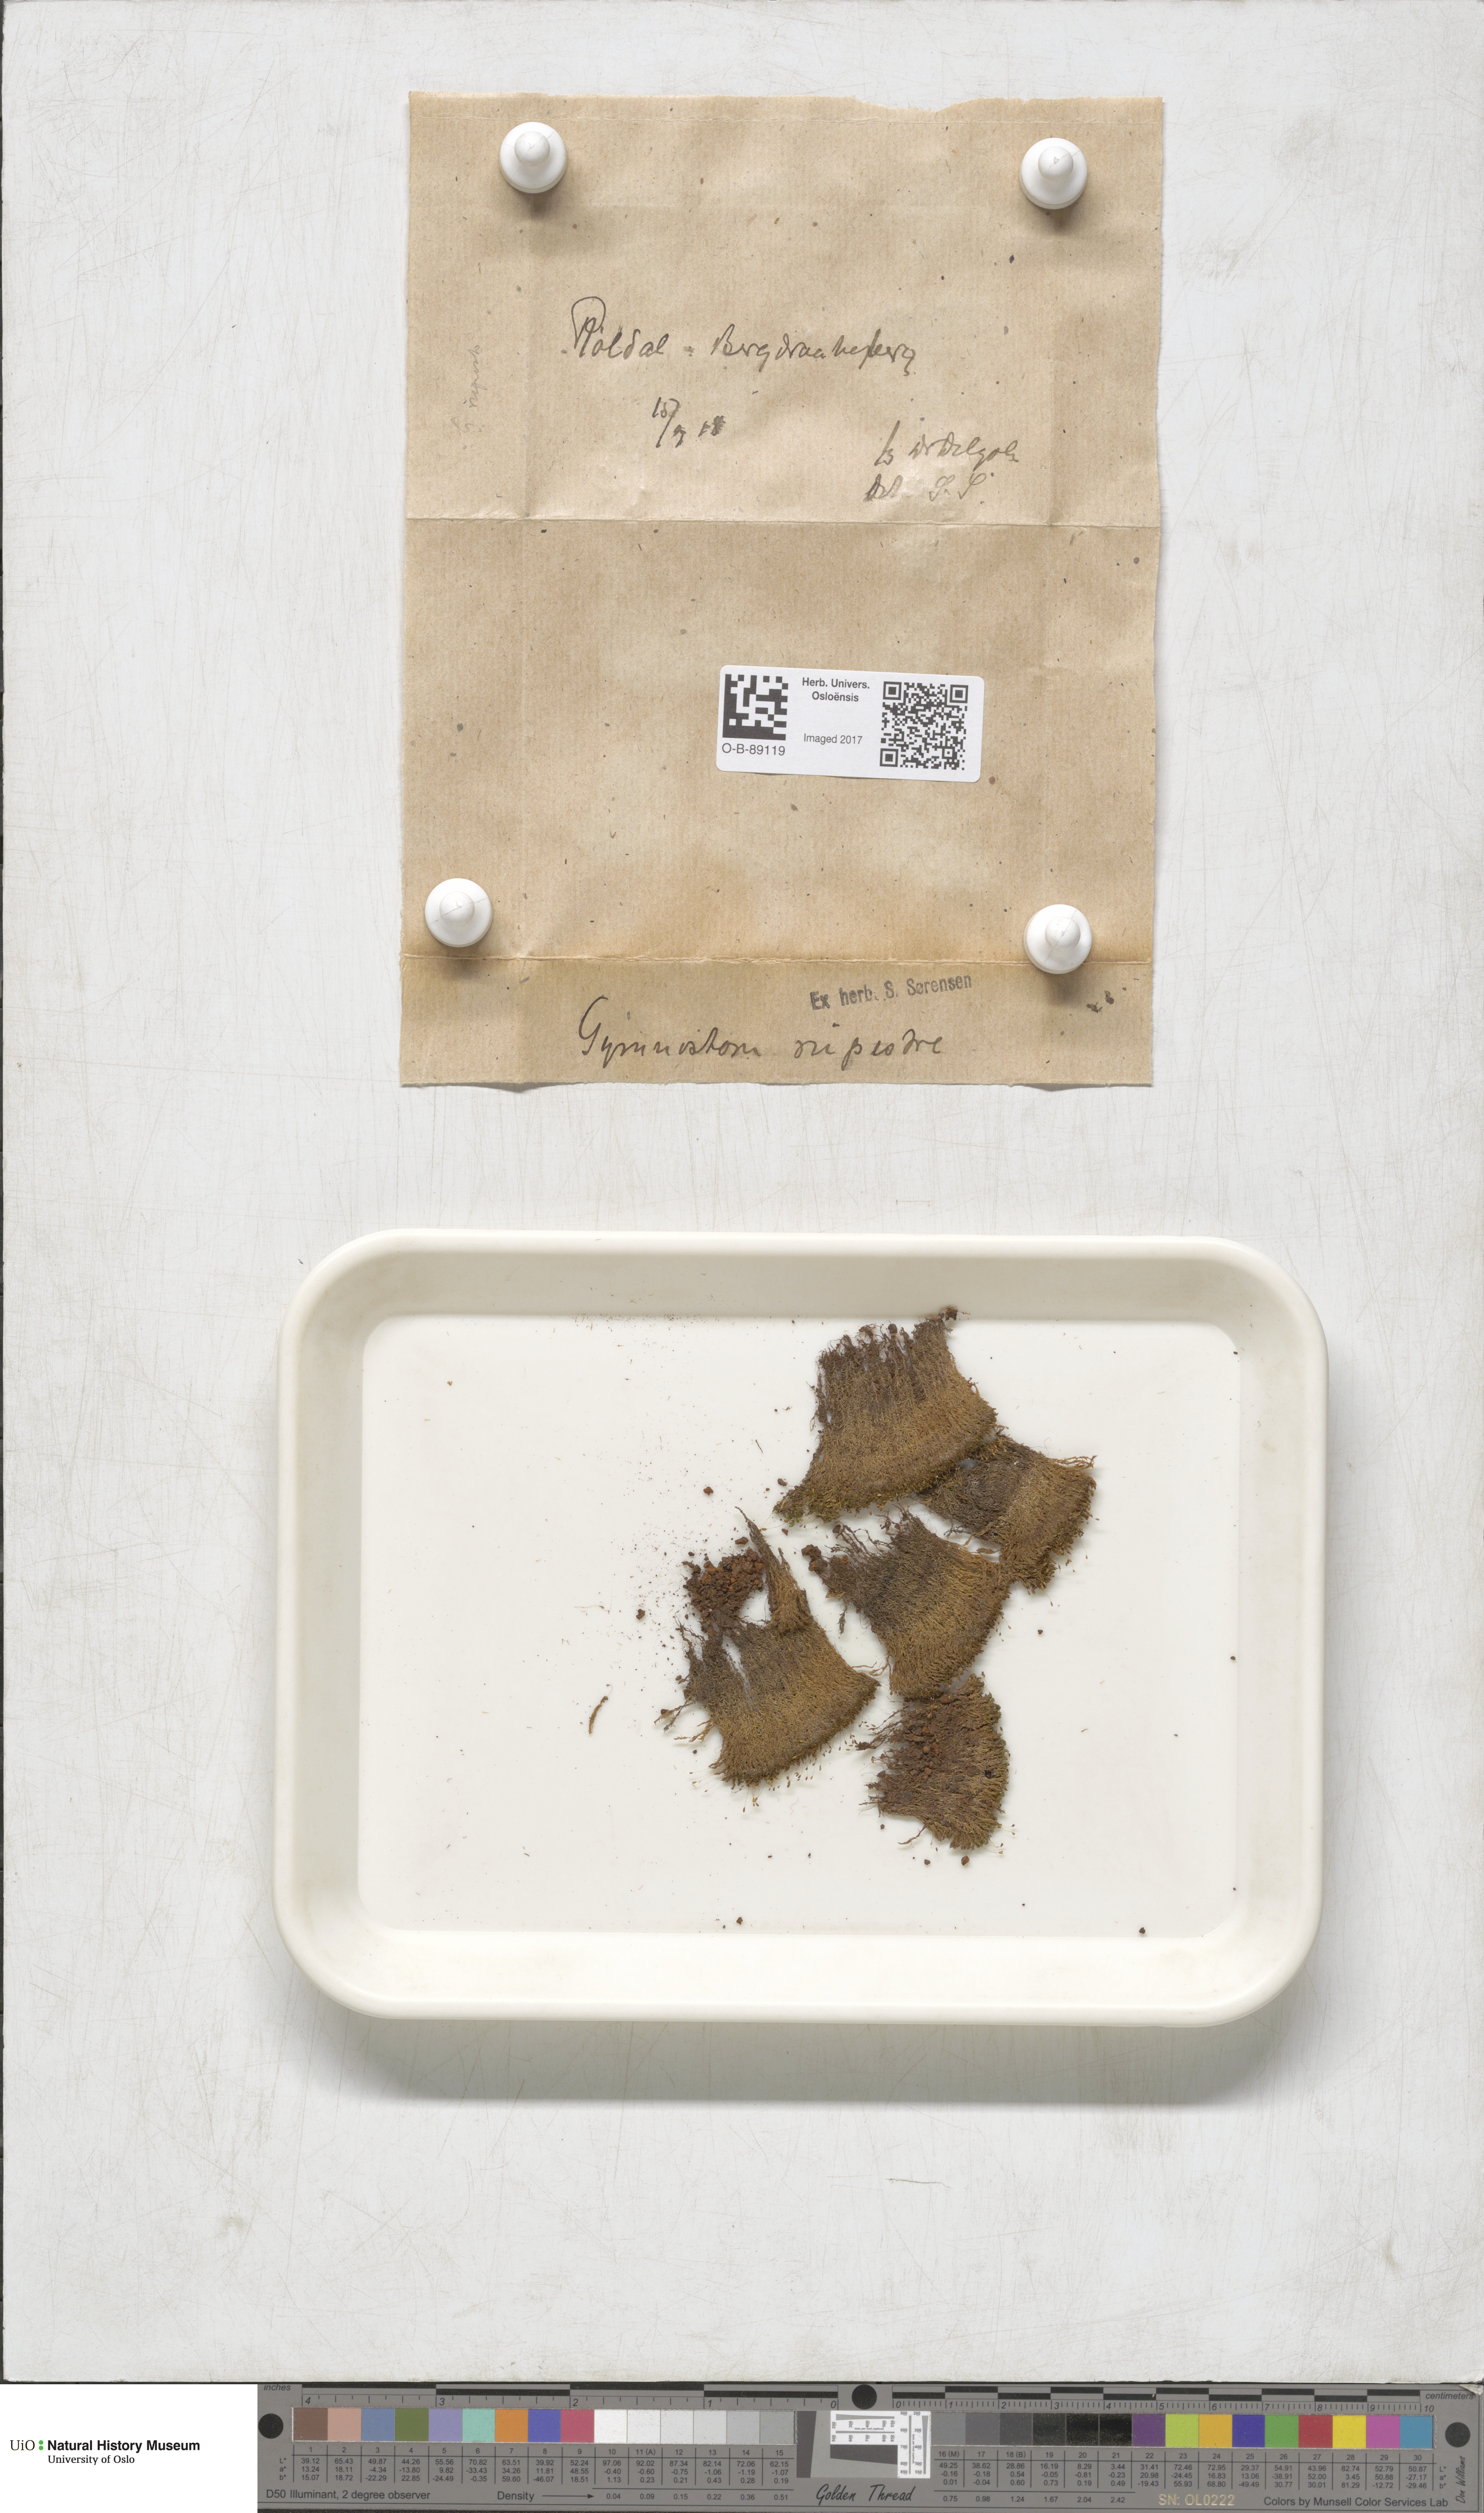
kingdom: Plantae
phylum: Bryophyta
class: Bryopsida
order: Pottiales
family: Pottiaceae
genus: Gymnostomum
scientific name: Gymnostomum aeruginosum
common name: Verdigris tufa-moss
